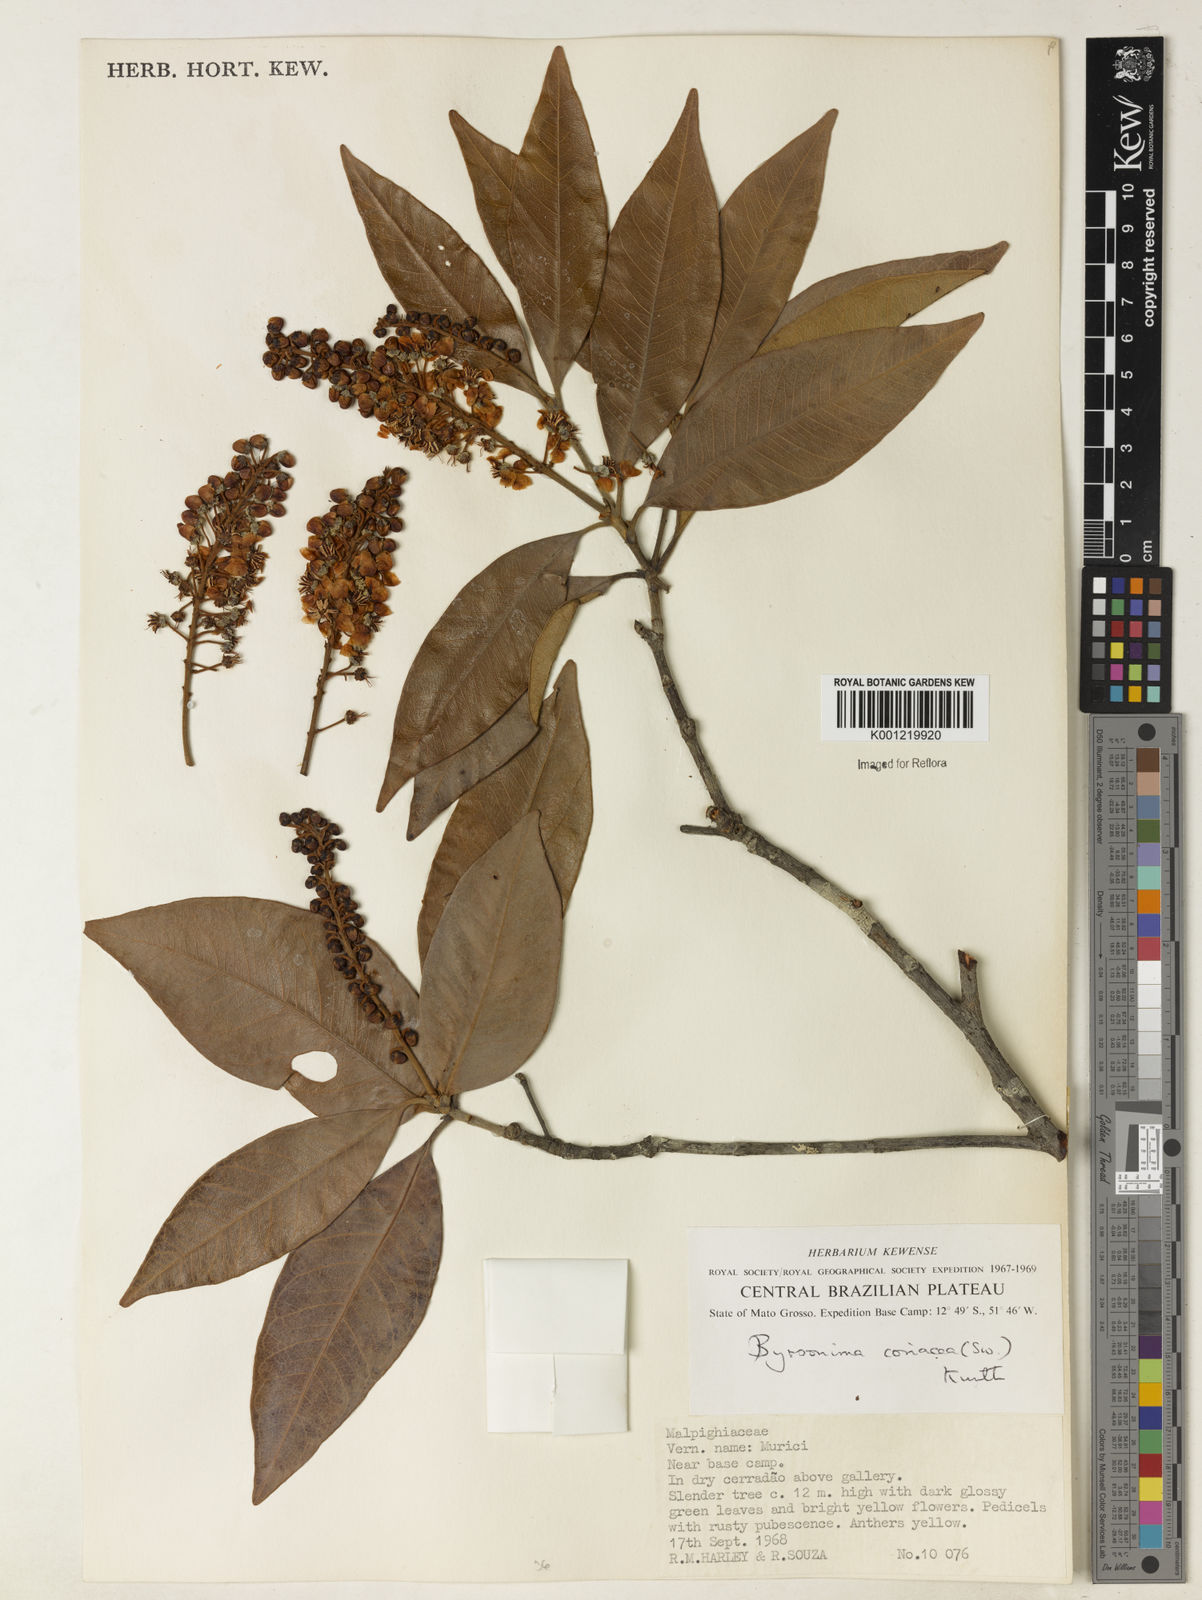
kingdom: Plantae
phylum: Tracheophyta
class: Magnoliopsida
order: Malpighiales
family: Malpighiaceae
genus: Byrsonima
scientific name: Byrsonima
